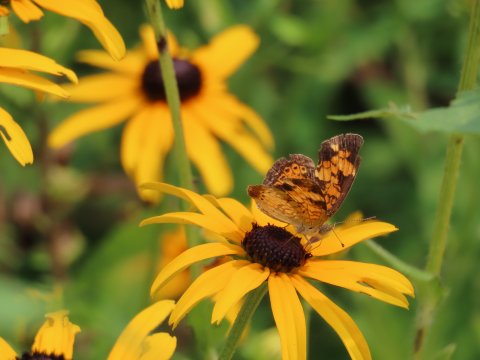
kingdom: Animalia
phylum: Arthropoda
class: Insecta
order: Lepidoptera
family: Nymphalidae
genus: Phyciodes
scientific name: Phyciodes tharos
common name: Pearl Crescent
